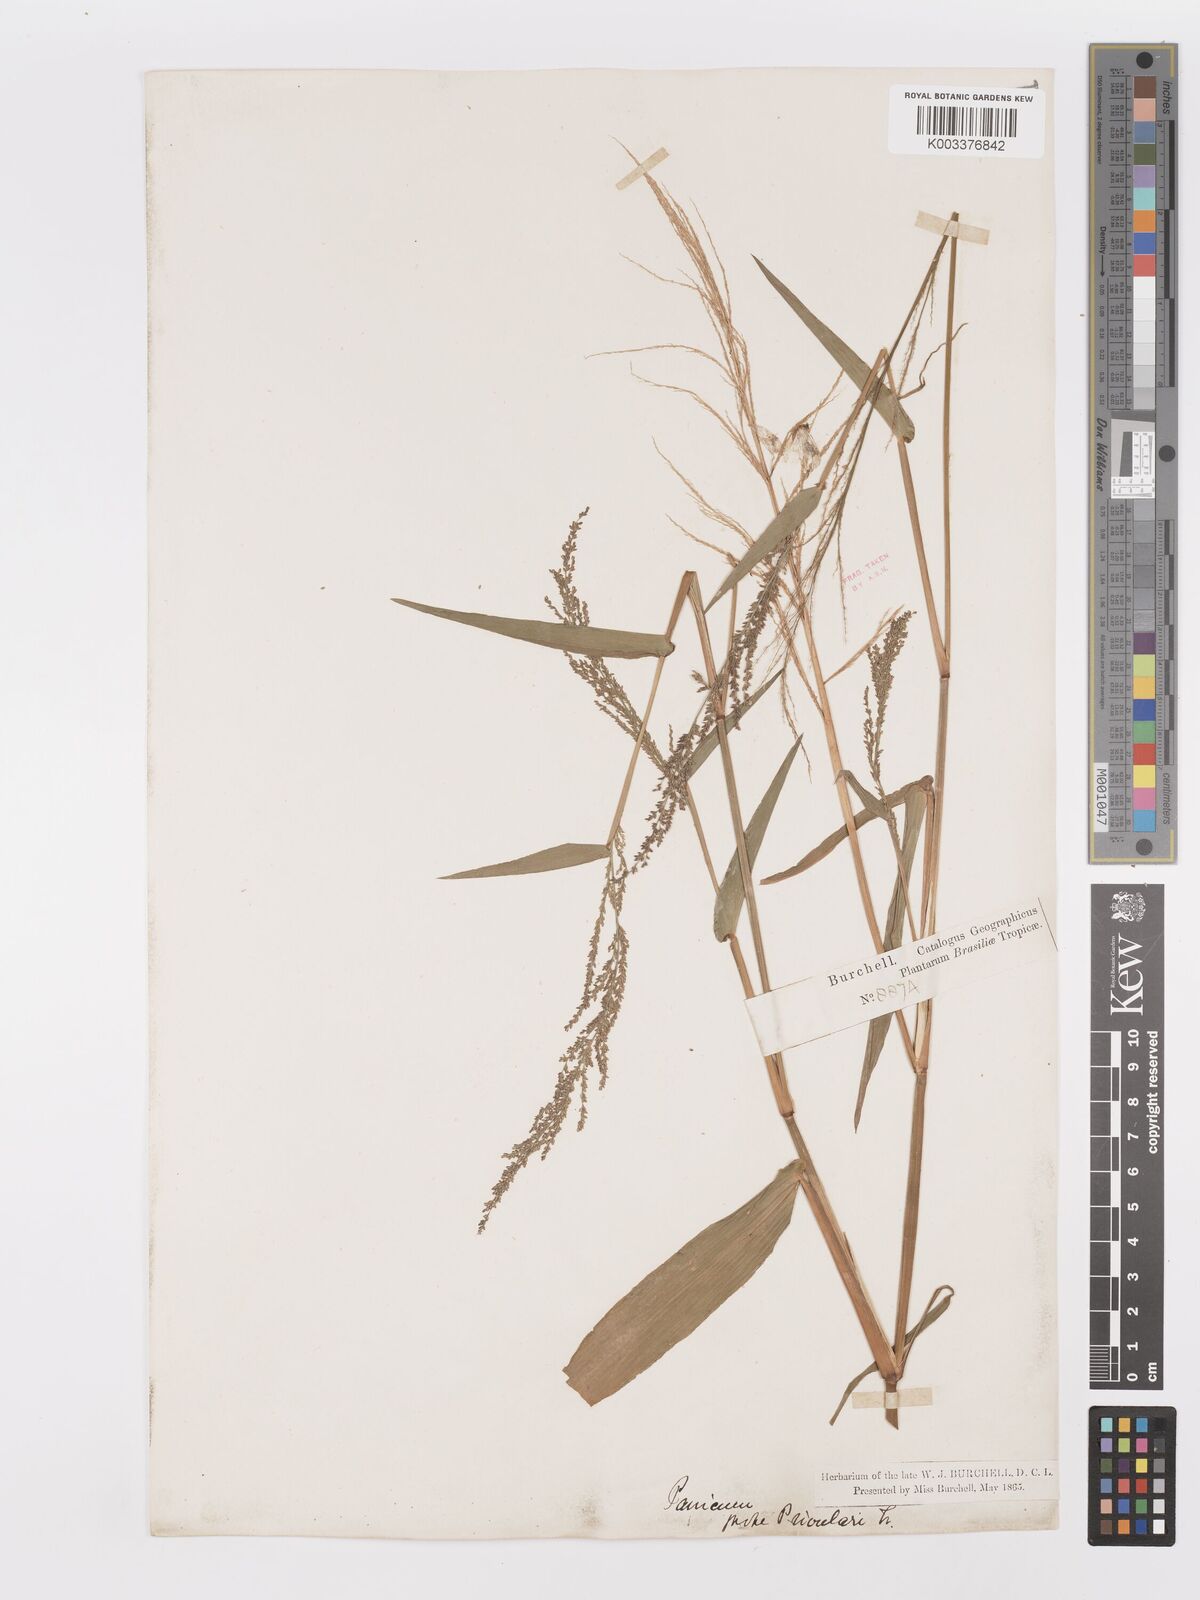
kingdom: Plantae
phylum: Tracheophyta
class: Liliopsida
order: Poales
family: Poaceae
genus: Rugoloa
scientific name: Rugoloa hylaeica
